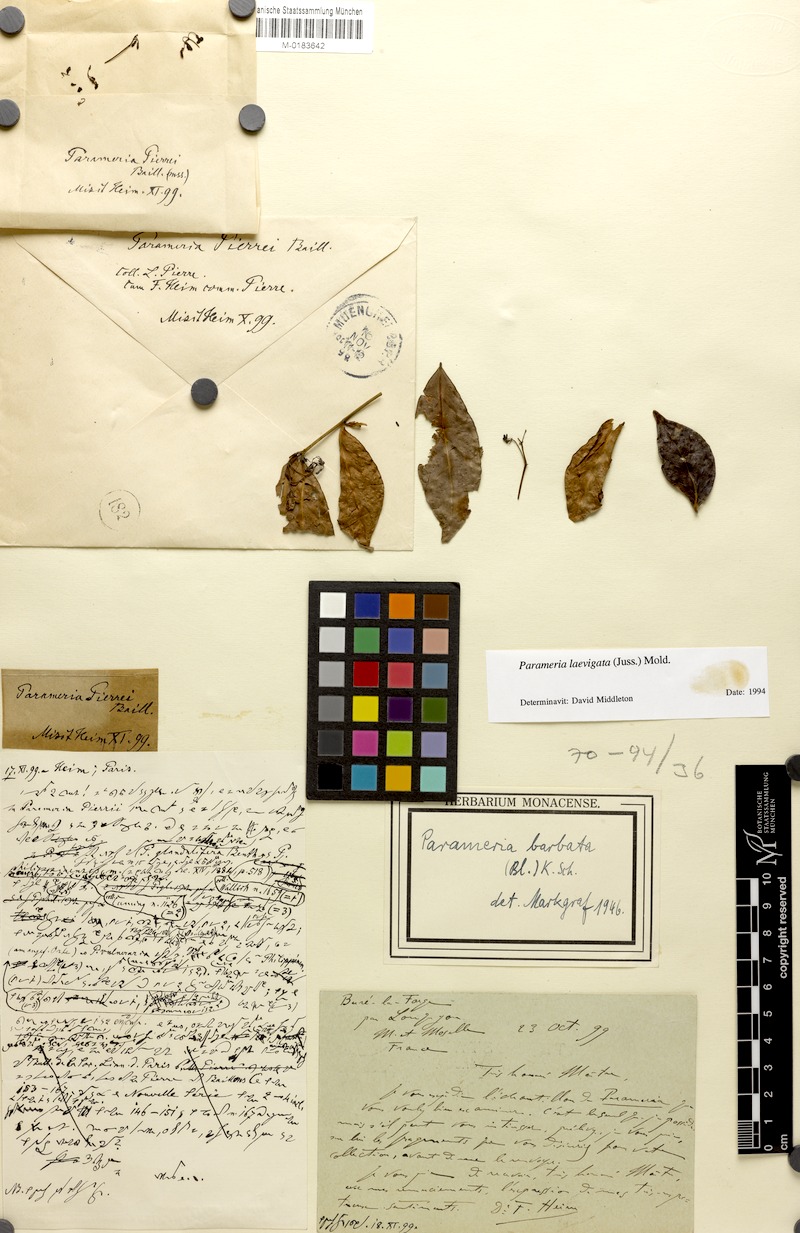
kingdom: Plantae
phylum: Tracheophyta
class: Magnoliopsida
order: Gentianales
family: Apocynaceae
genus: Urceola
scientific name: Urceola laevigata
